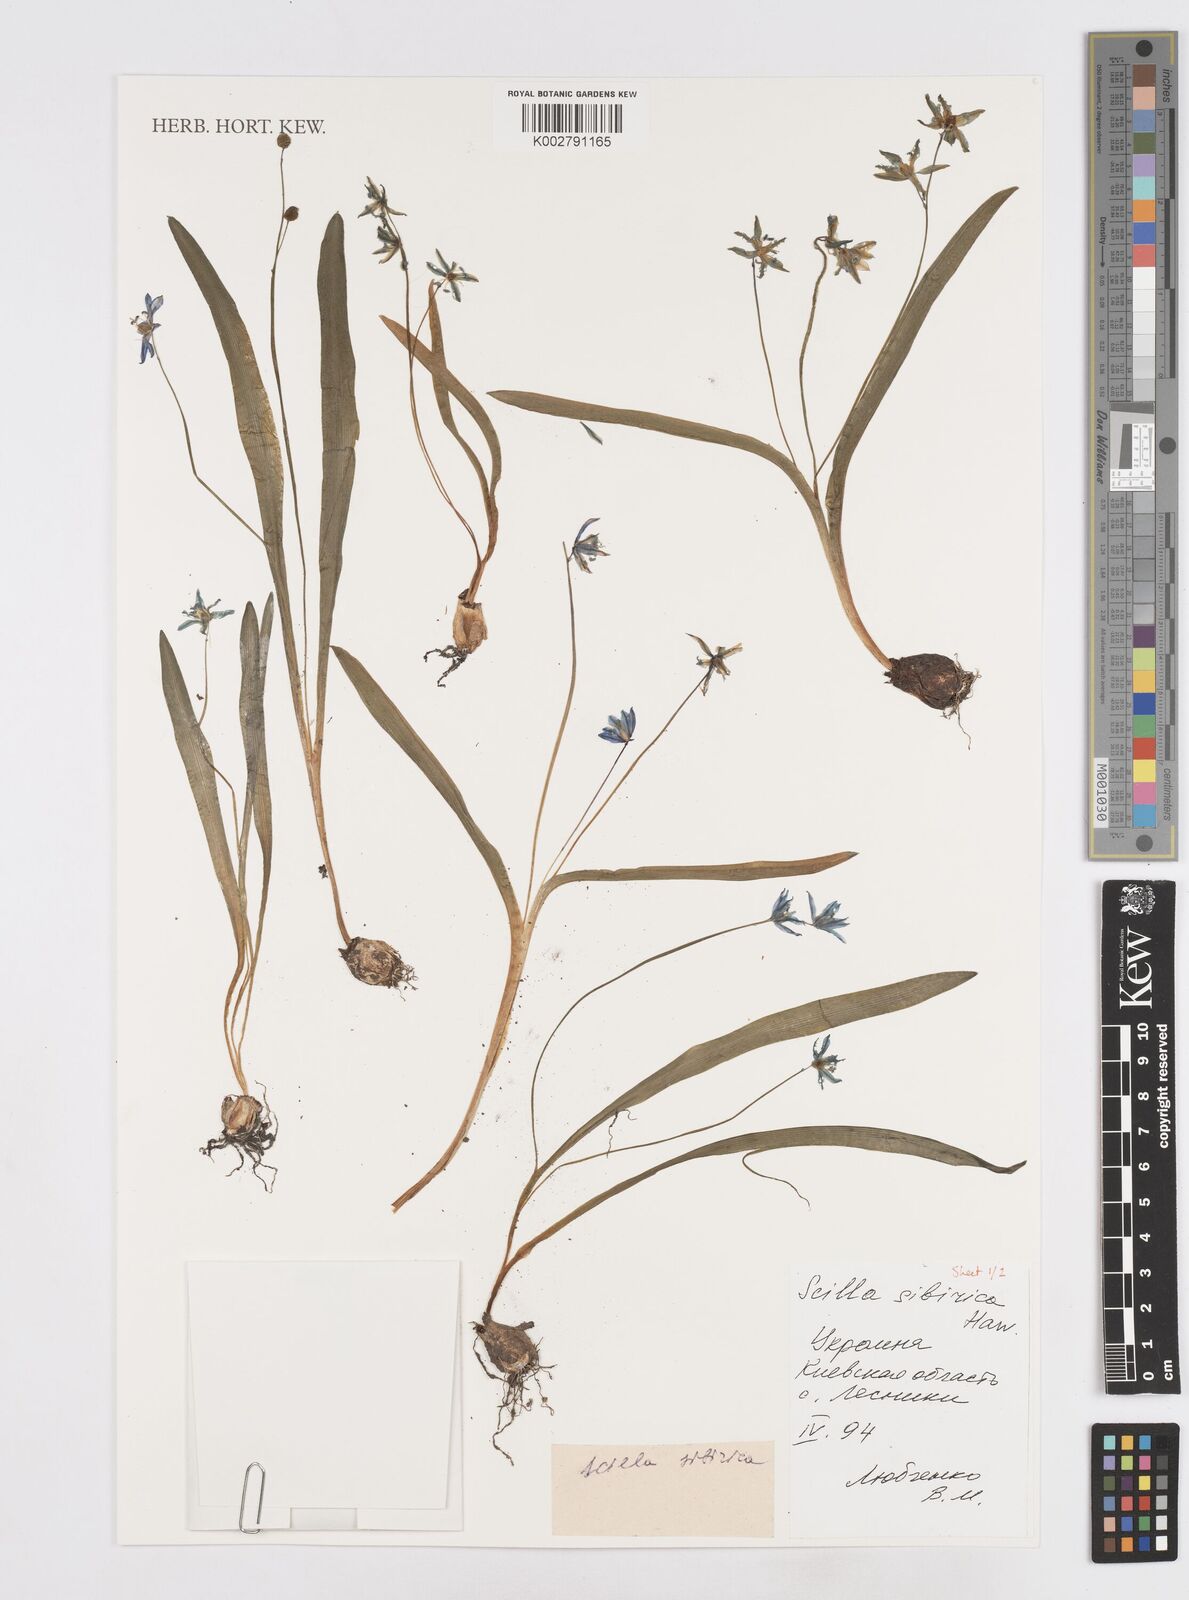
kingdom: Plantae
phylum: Tracheophyta
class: Liliopsida
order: Asparagales
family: Asparagaceae
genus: Scilla
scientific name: Scilla siberica
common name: Siberian squill
